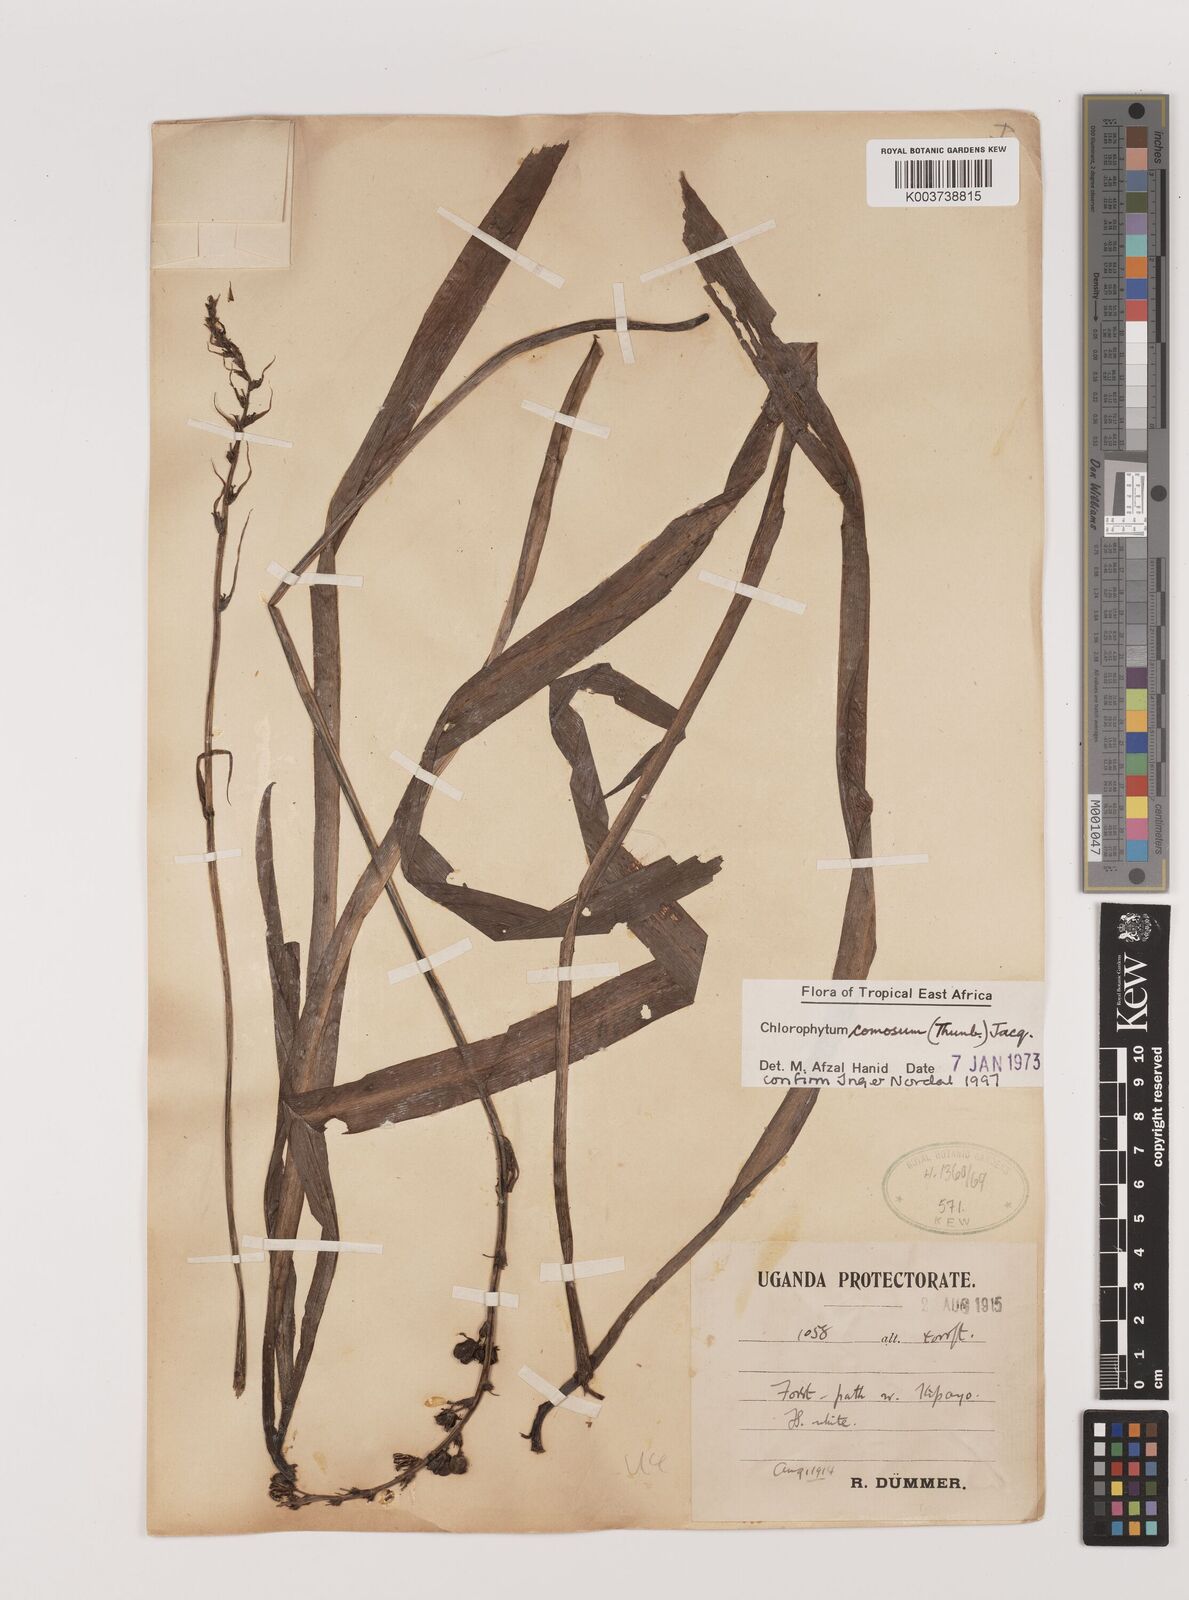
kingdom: Plantae
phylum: Tracheophyta
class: Liliopsida
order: Asparagales
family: Asparagaceae
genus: Chlorophytum
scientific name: Chlorophytum comosum
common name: Spider plant
